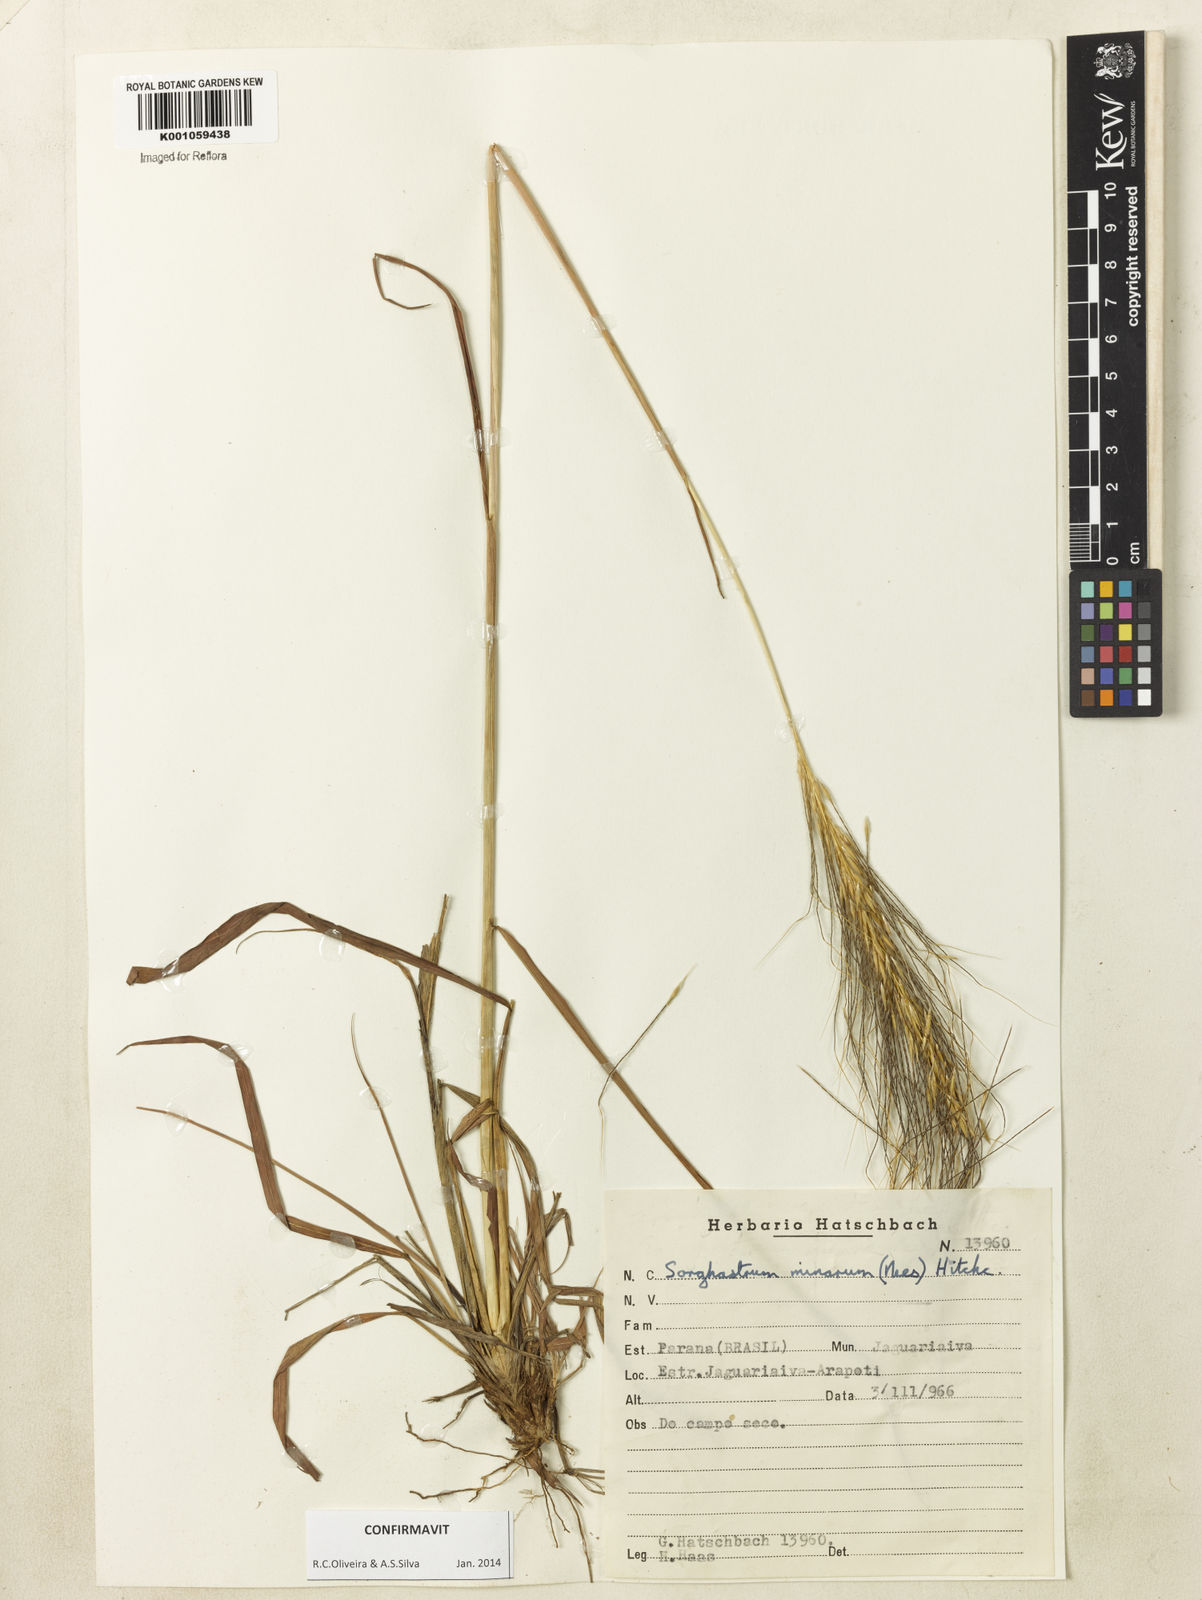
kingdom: Plantae
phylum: Tracheophyta
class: Liliopsida
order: Poales
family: Poaceae
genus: Sorghastrum
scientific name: Sorghastrum minarum
